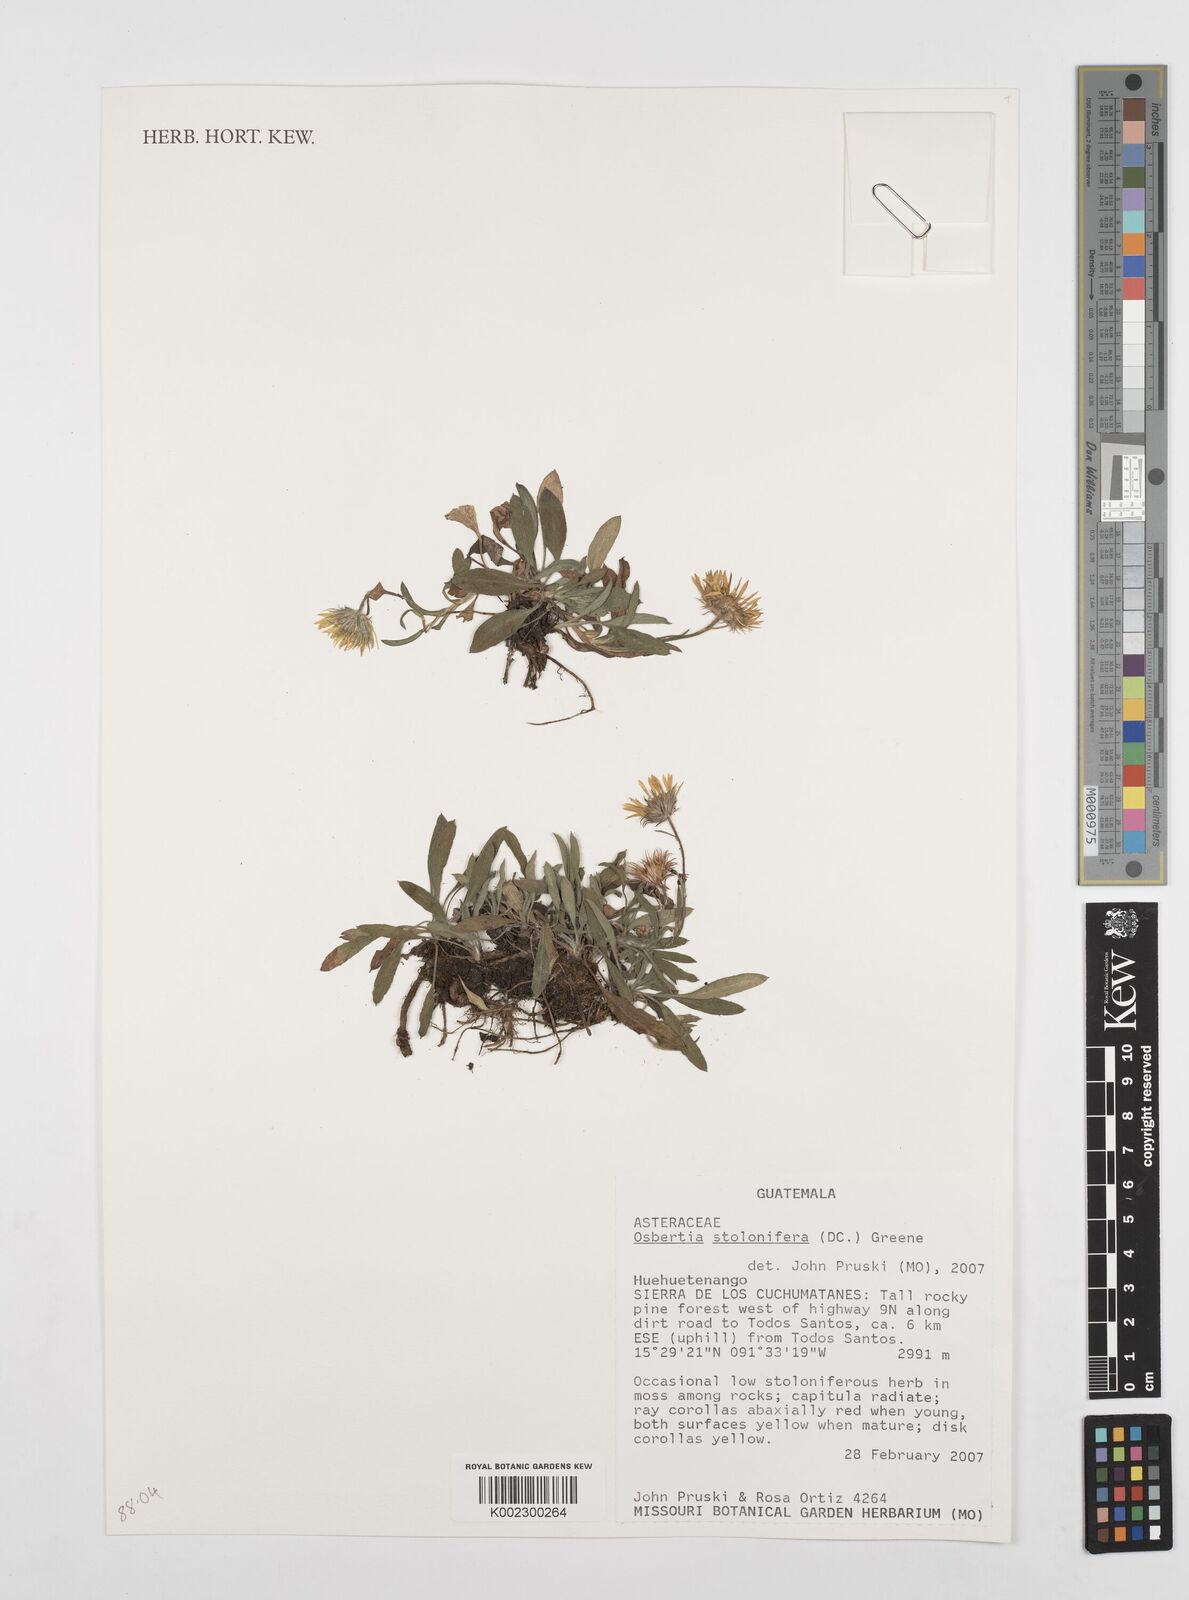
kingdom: Plantae
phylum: Tracheophyta
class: Magnoliopsida
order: Asterales
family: Asteraceae
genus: Osbertia
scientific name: Osbertia stolonifera
